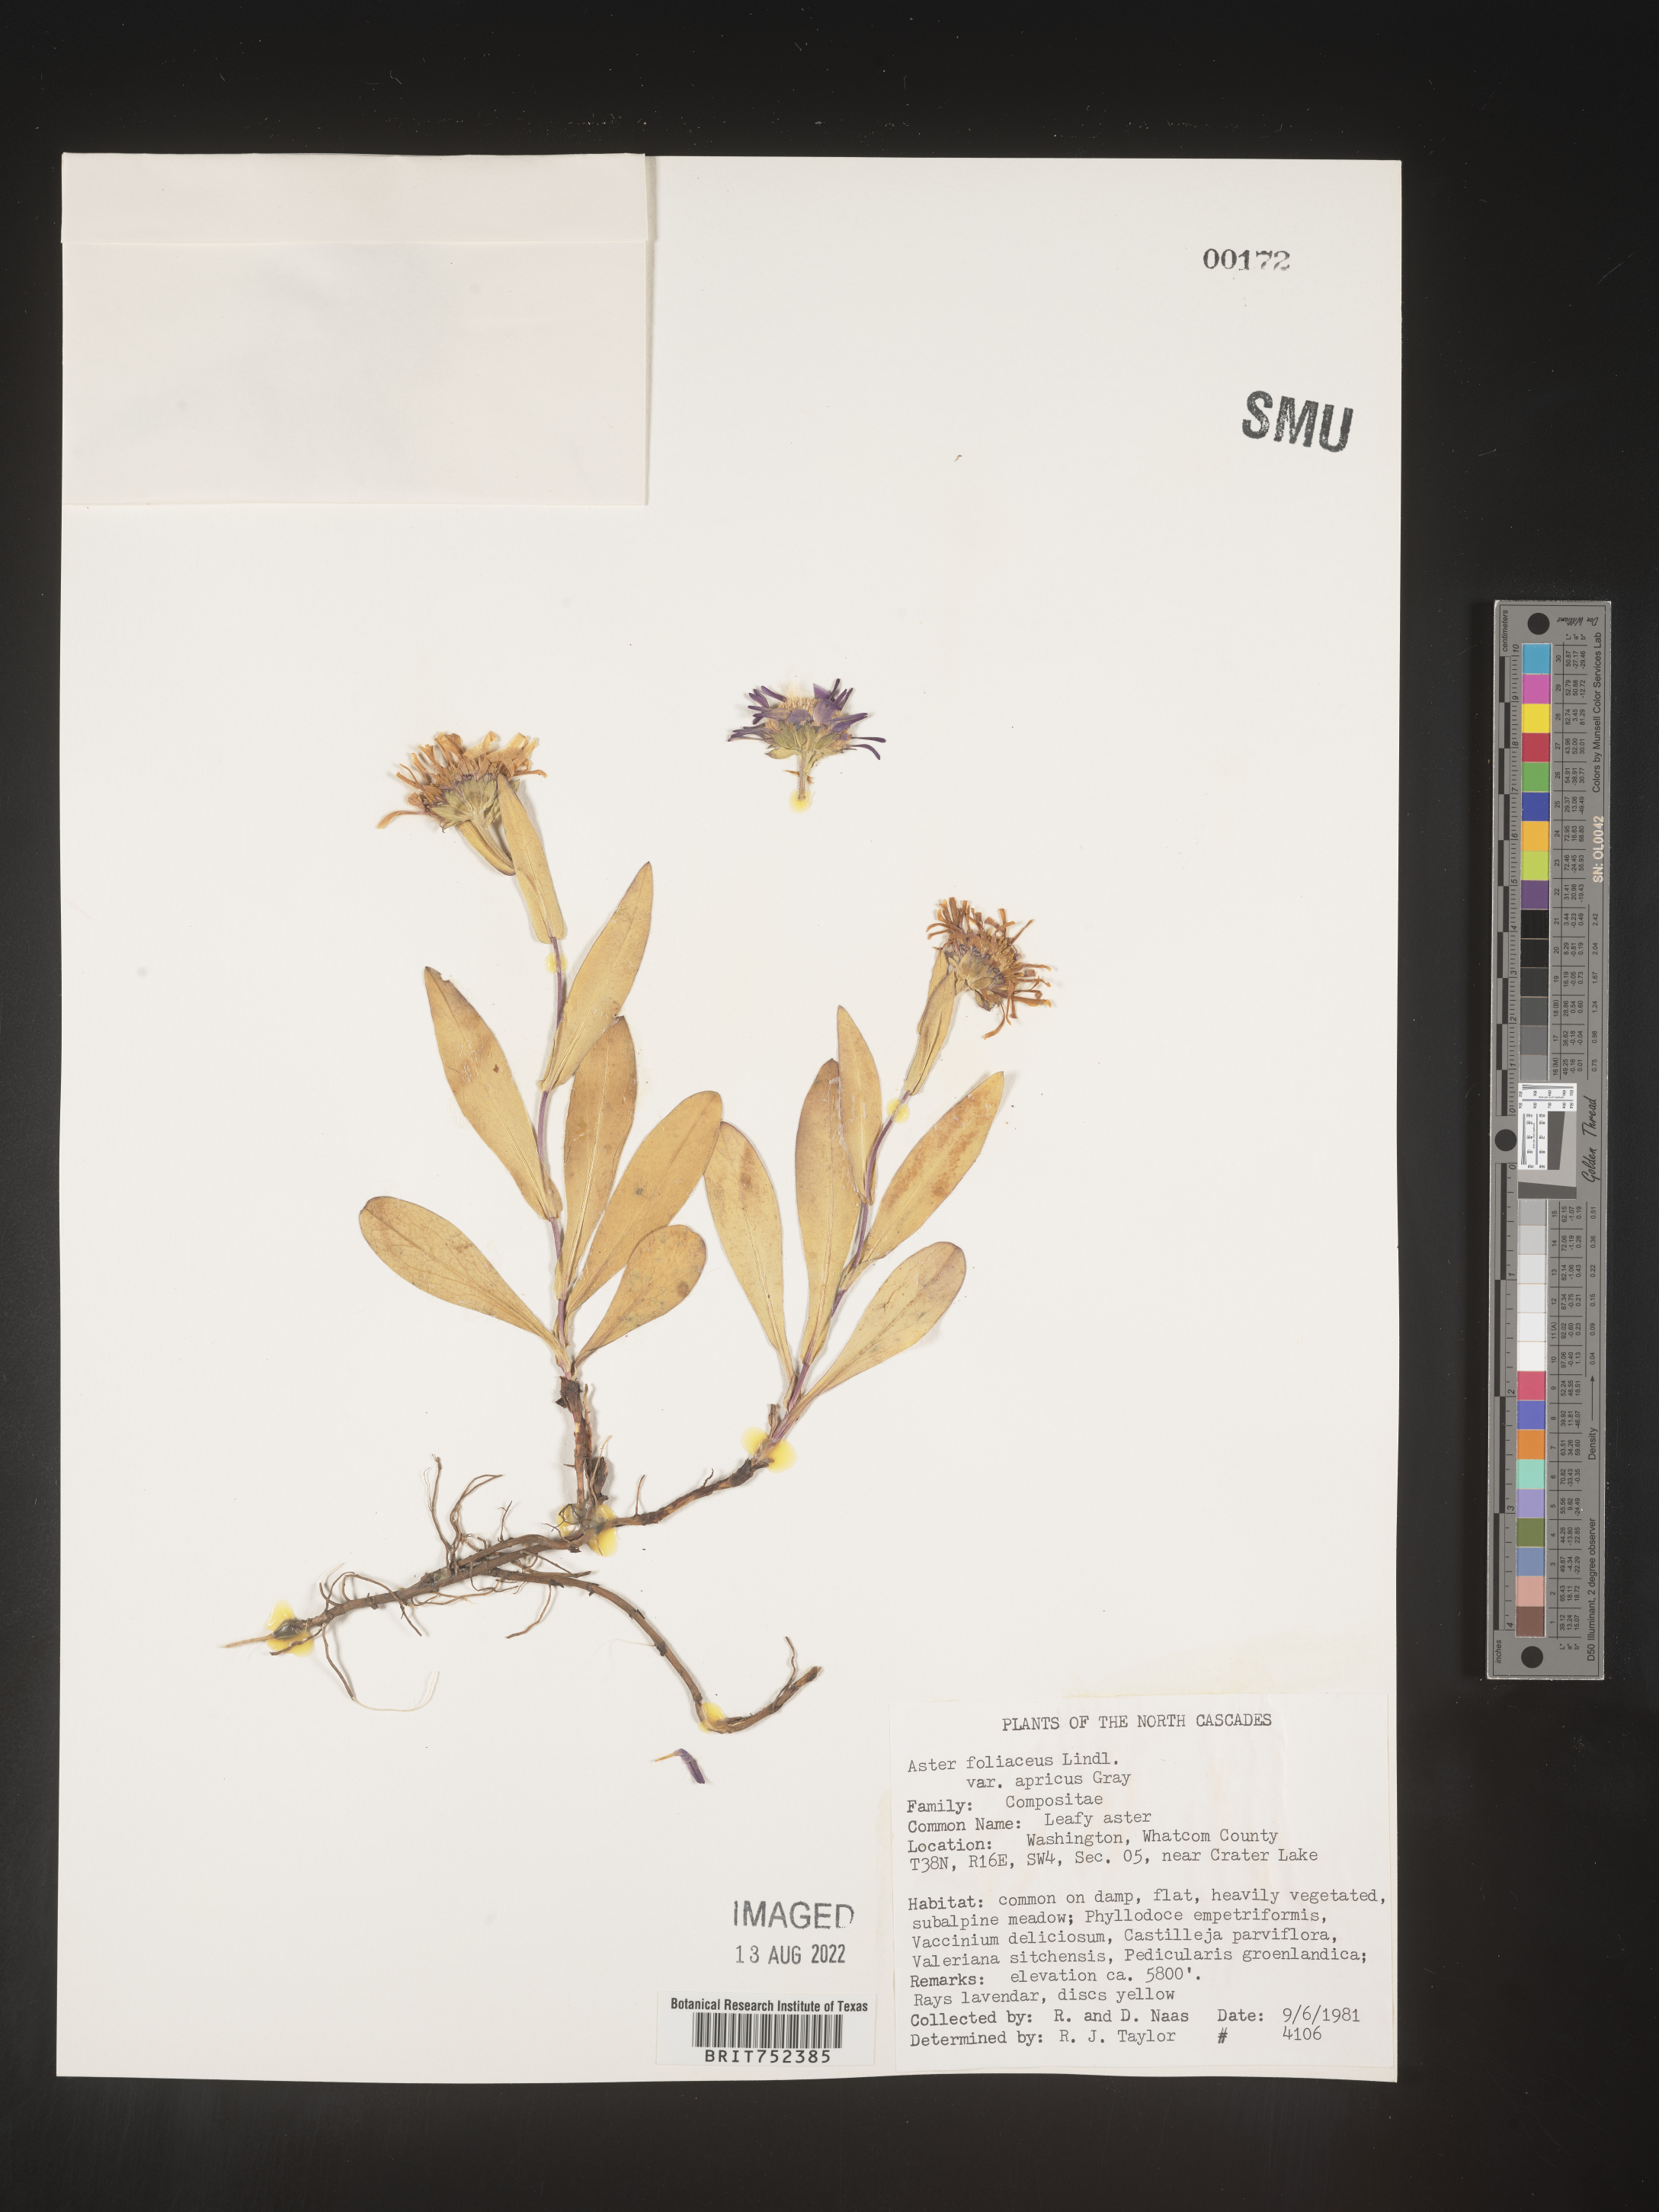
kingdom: Plantae
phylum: Tracheophyta
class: Magnoliopsida
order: Asterales
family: Asteraceae
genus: Symphyotrichum
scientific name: Symphyotrichum foliaceum
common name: Leafy aster
